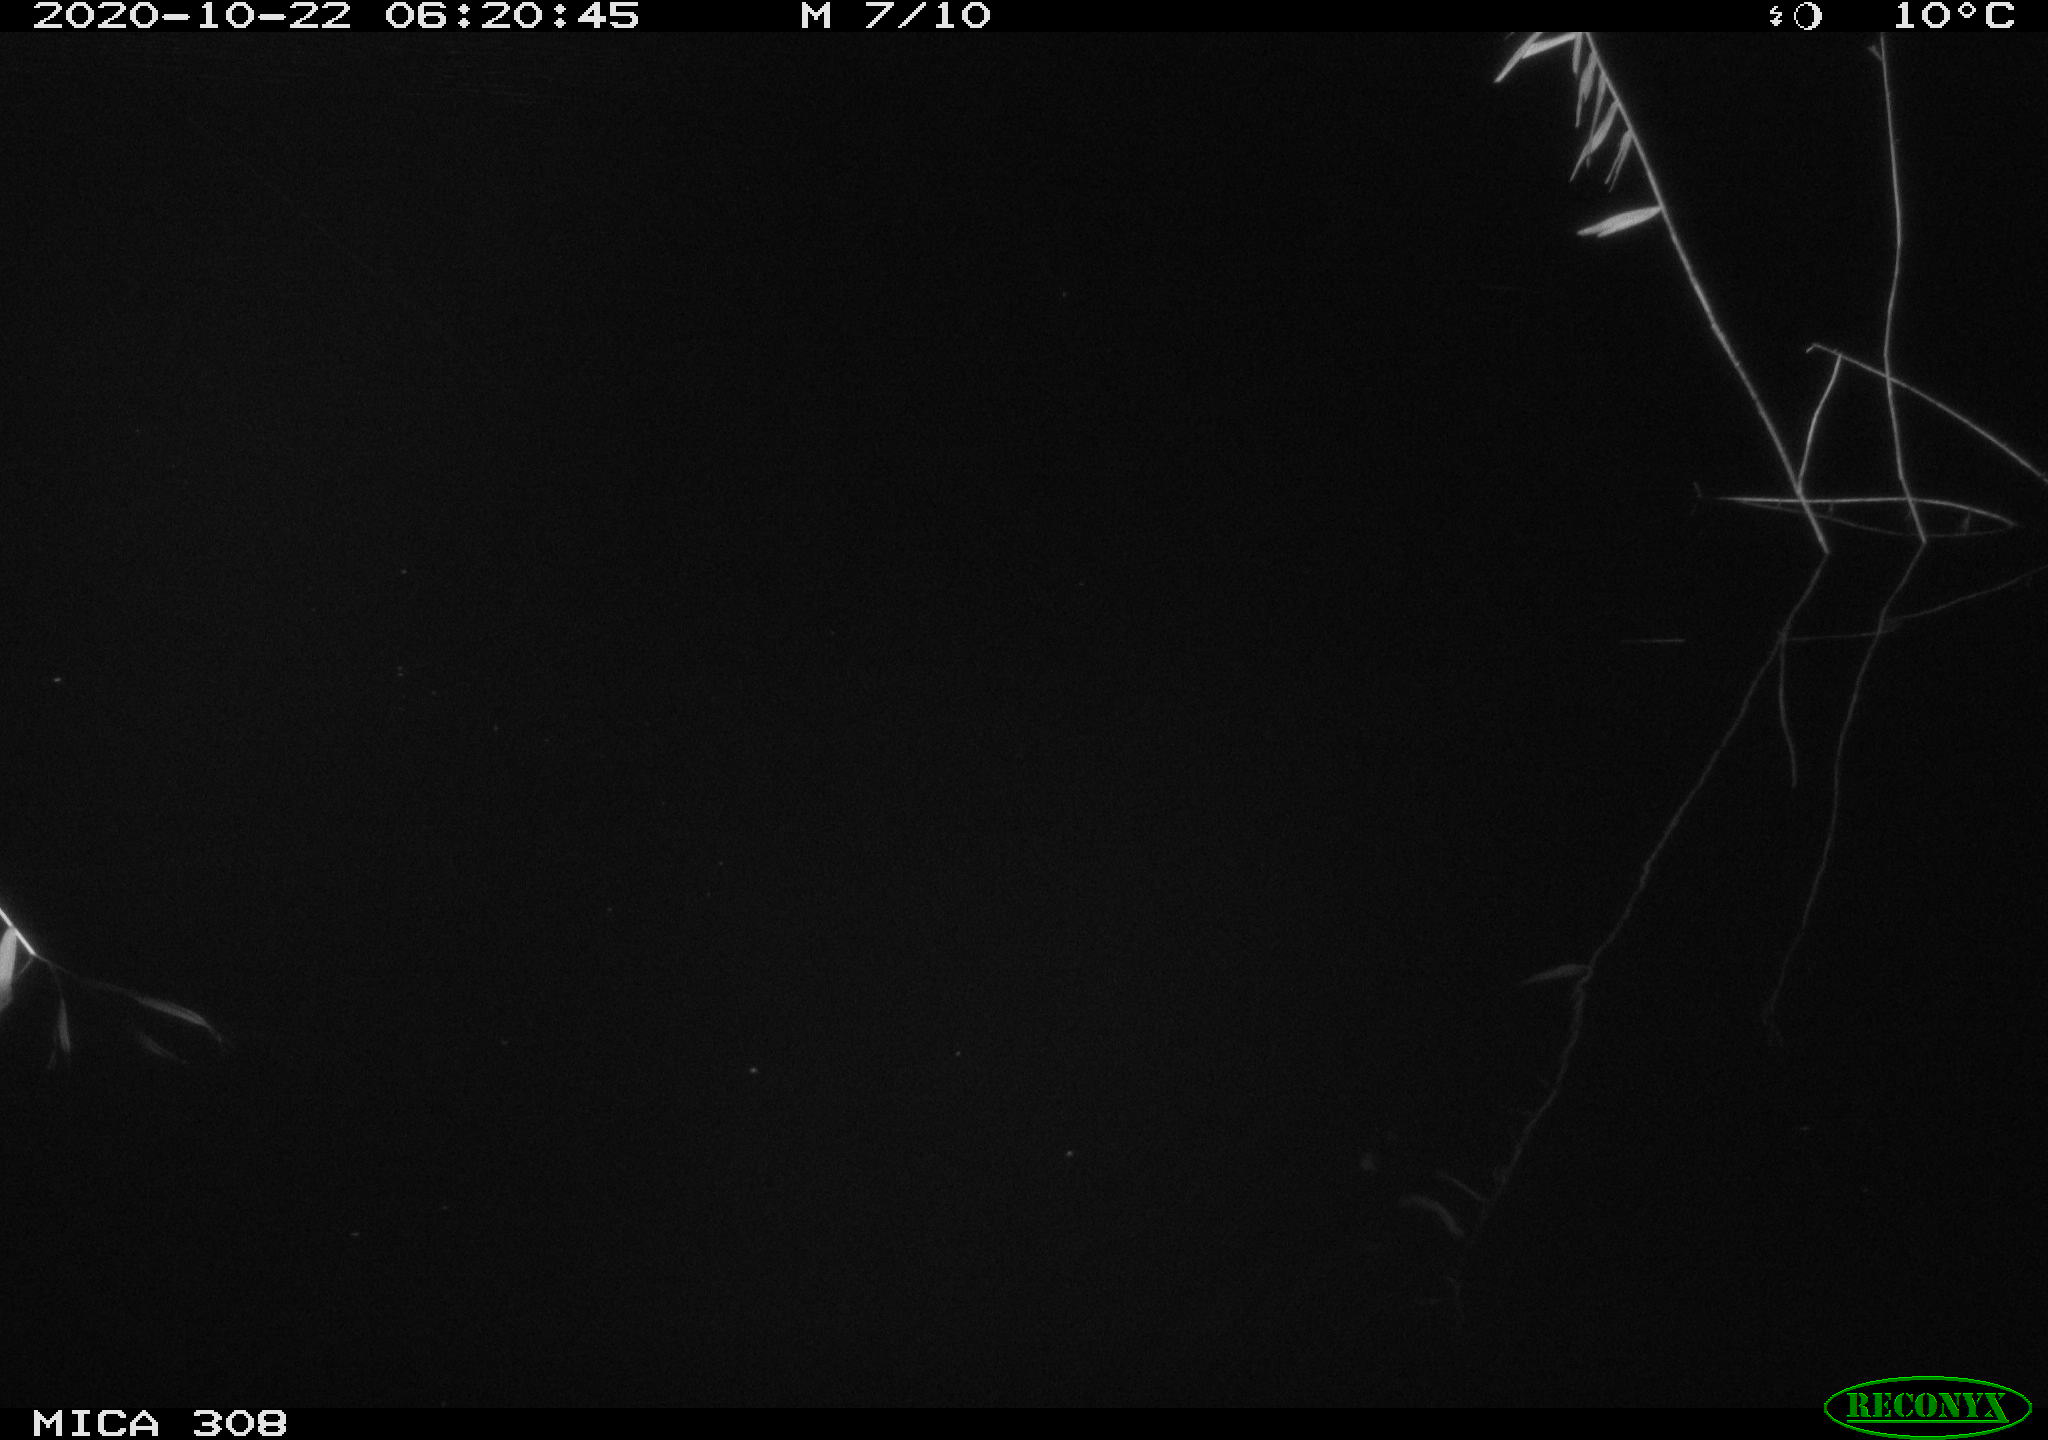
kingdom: Animalia
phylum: Chordata
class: Aves
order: Anseriformes
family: Anatidae
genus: Anas
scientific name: Anas platyrhynchos
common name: Mallard
